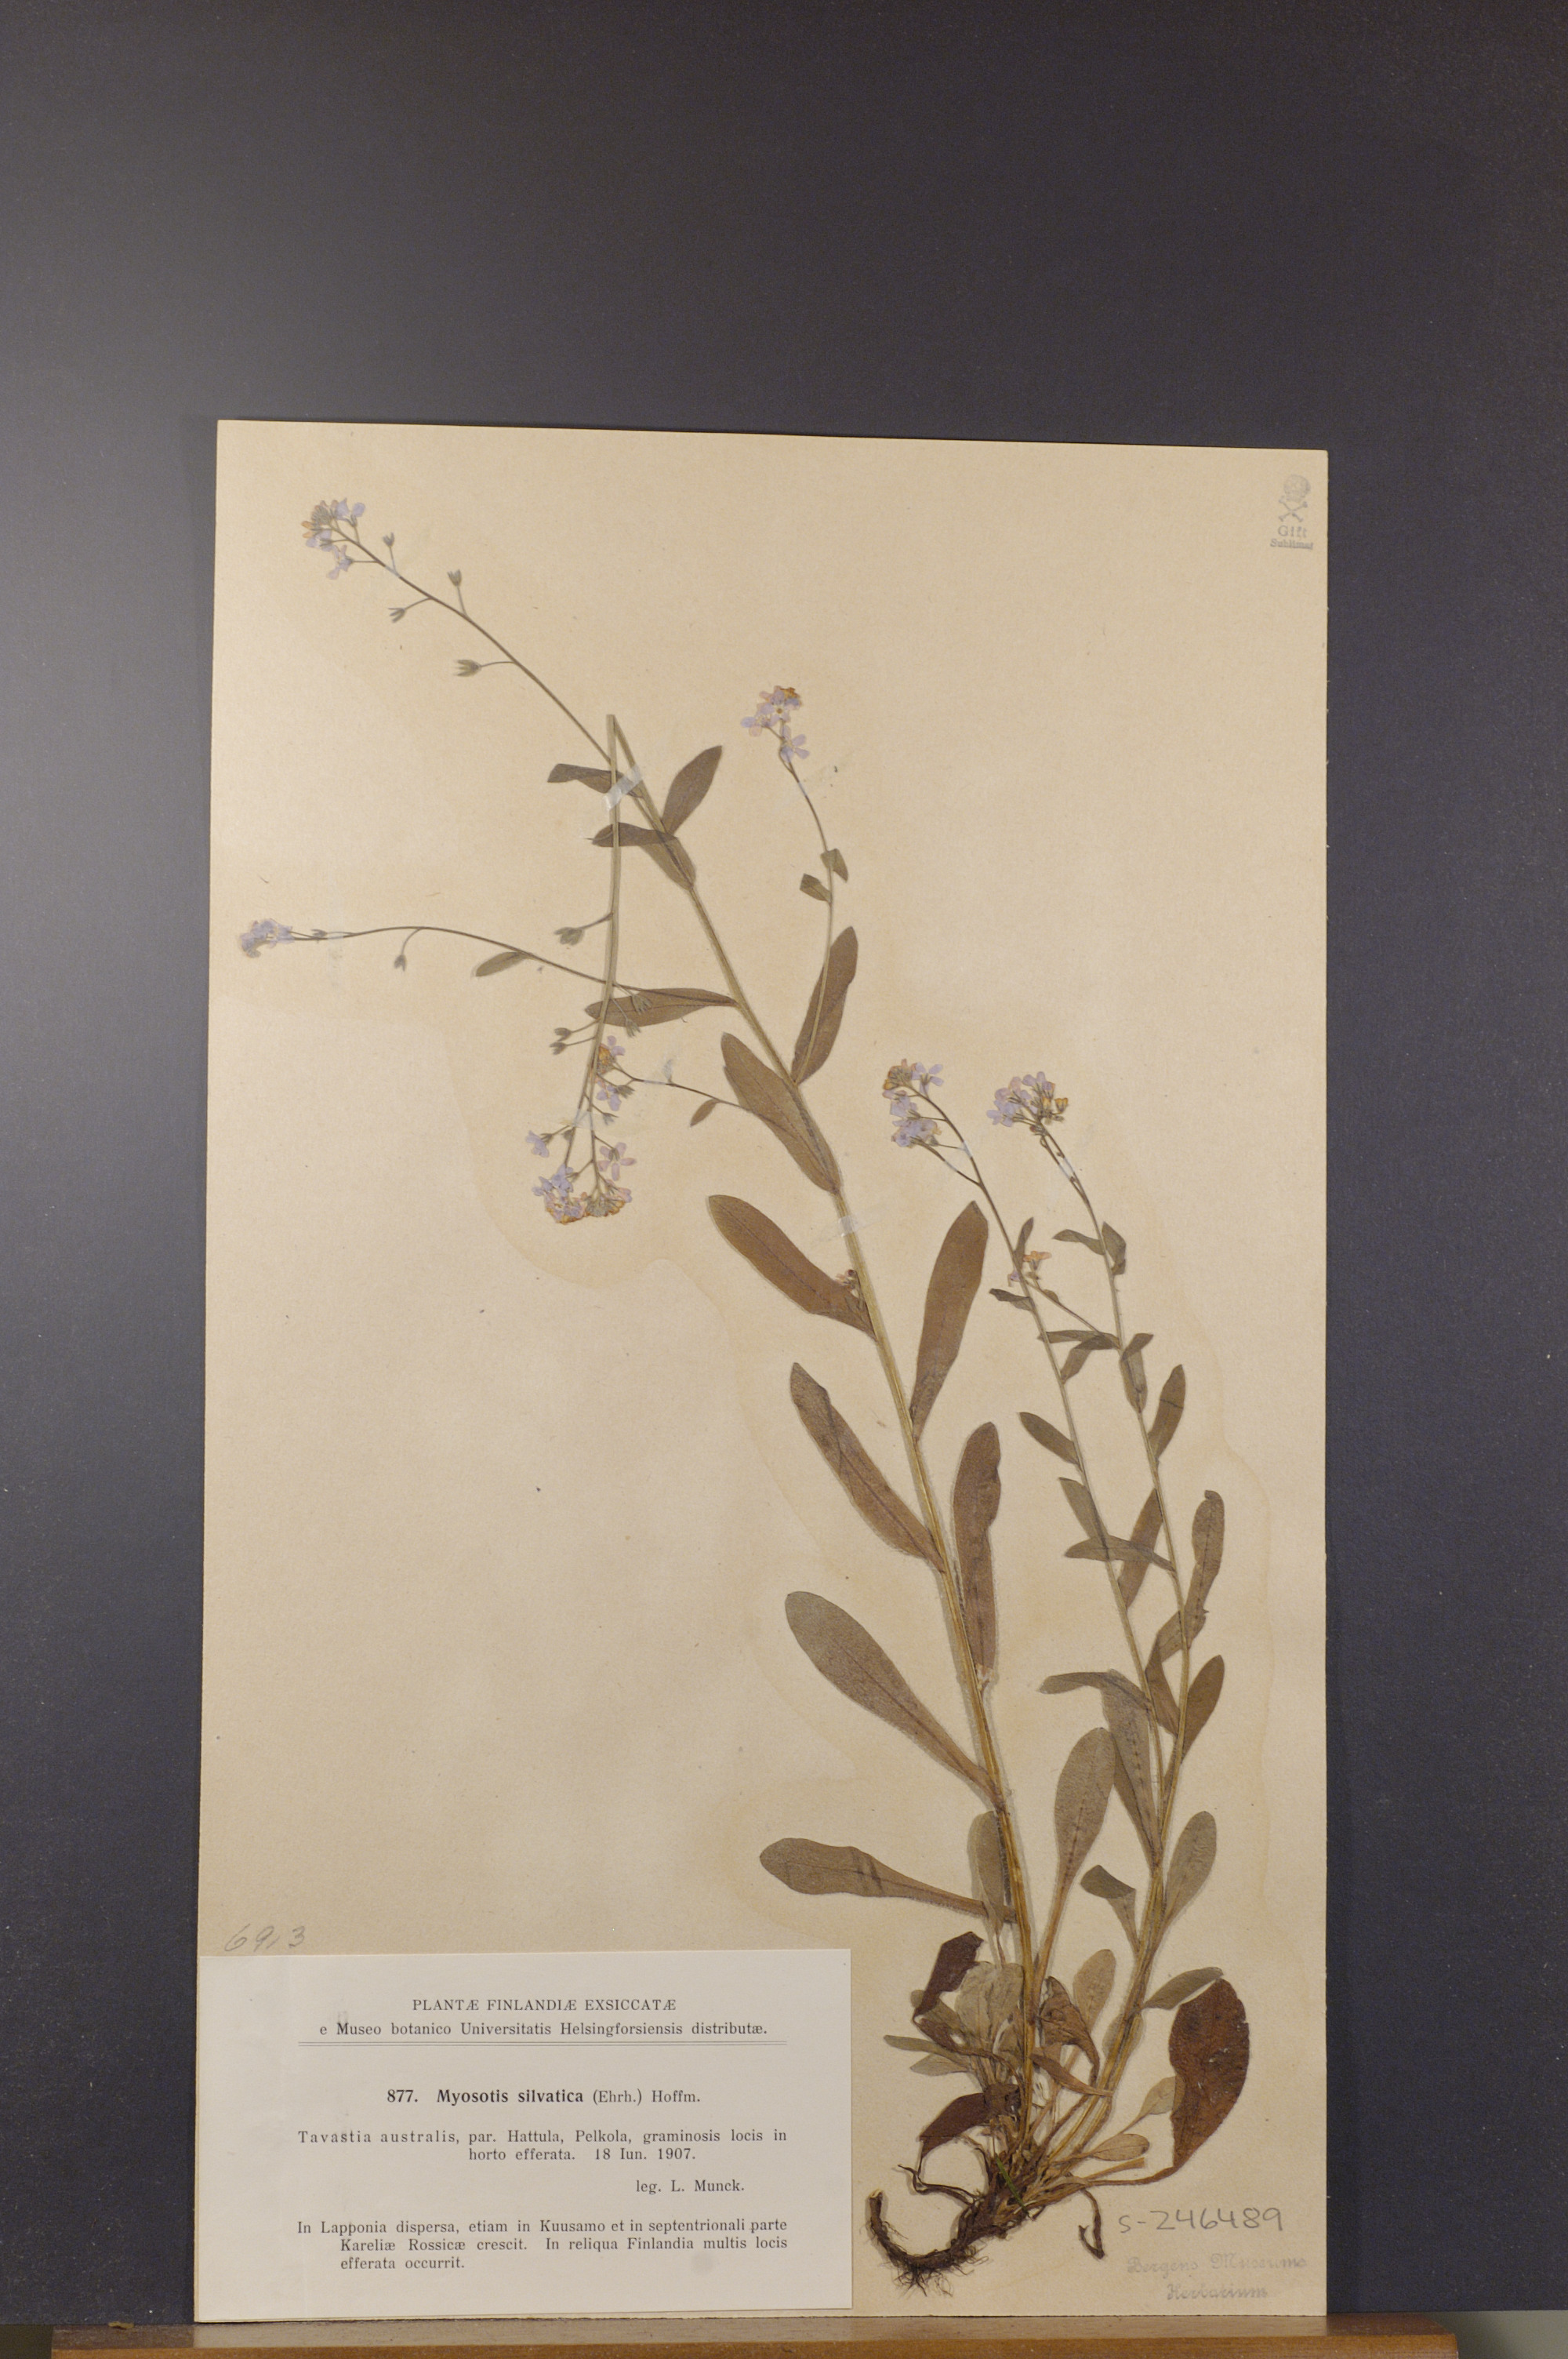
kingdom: Plantae
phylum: Tracheophyta
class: Magnoliopsida
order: Boraginales
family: Boraginaceae
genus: Myosotis
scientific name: Myosotis sylvatica
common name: Wood forget-me-not
